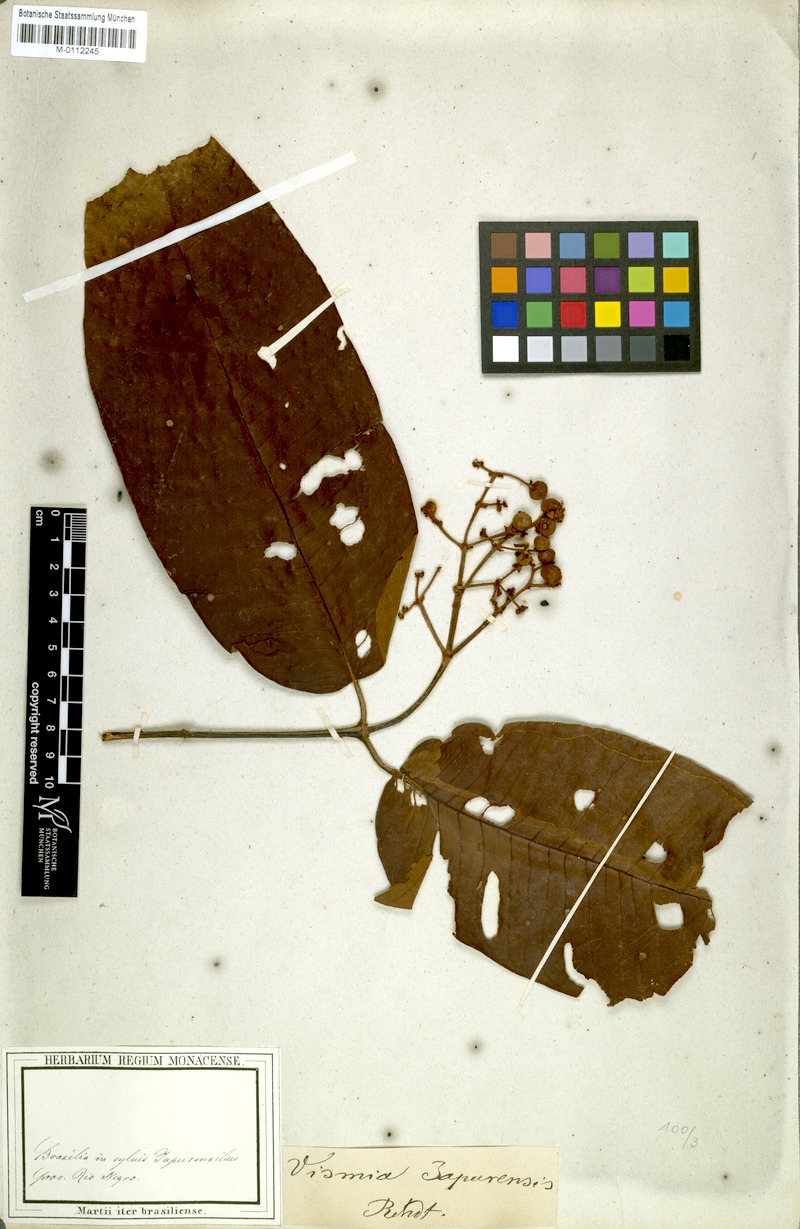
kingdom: Plantae
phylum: Tracheophyta
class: Magnoliopsida
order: Malpighiales
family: Hypericaceae
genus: Vismia
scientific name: Vismia japurensis
